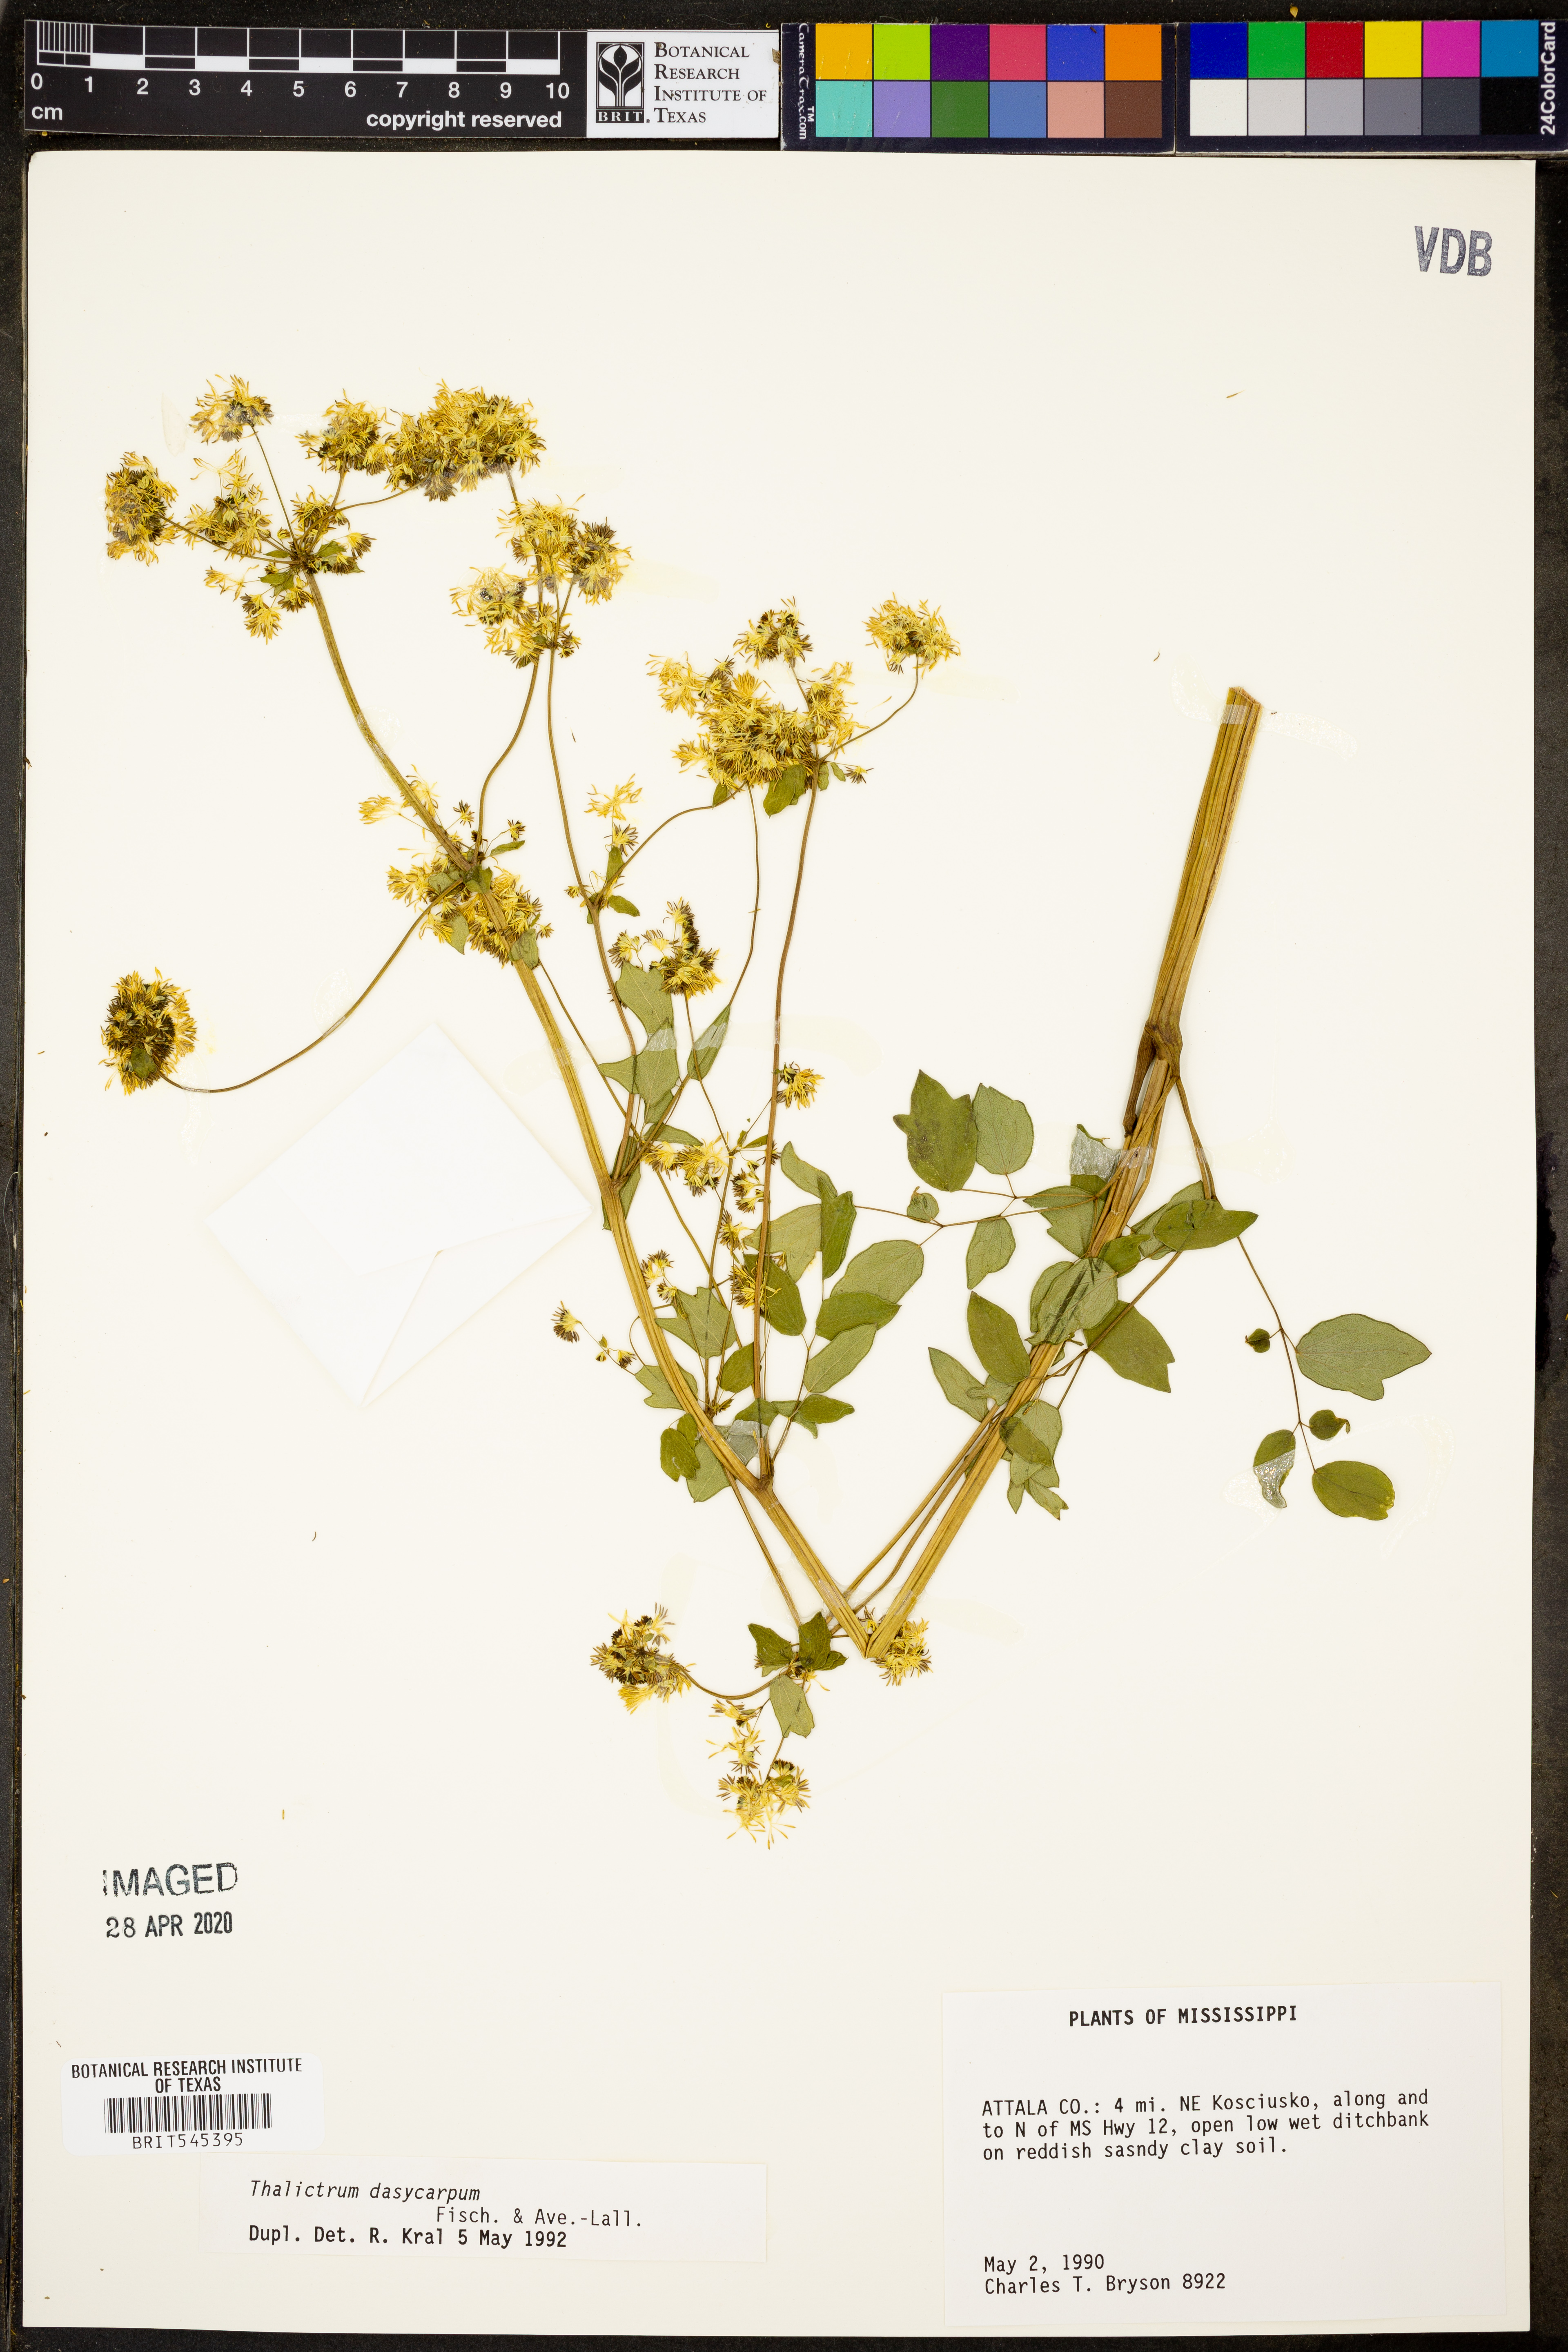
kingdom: Plantae
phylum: Tracheophyta
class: Magnoliopsida
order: Ranunculales
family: Ranunculaceae
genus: Thalictrum
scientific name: Thalictrum dasycarpum
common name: Purple meadow-rue
